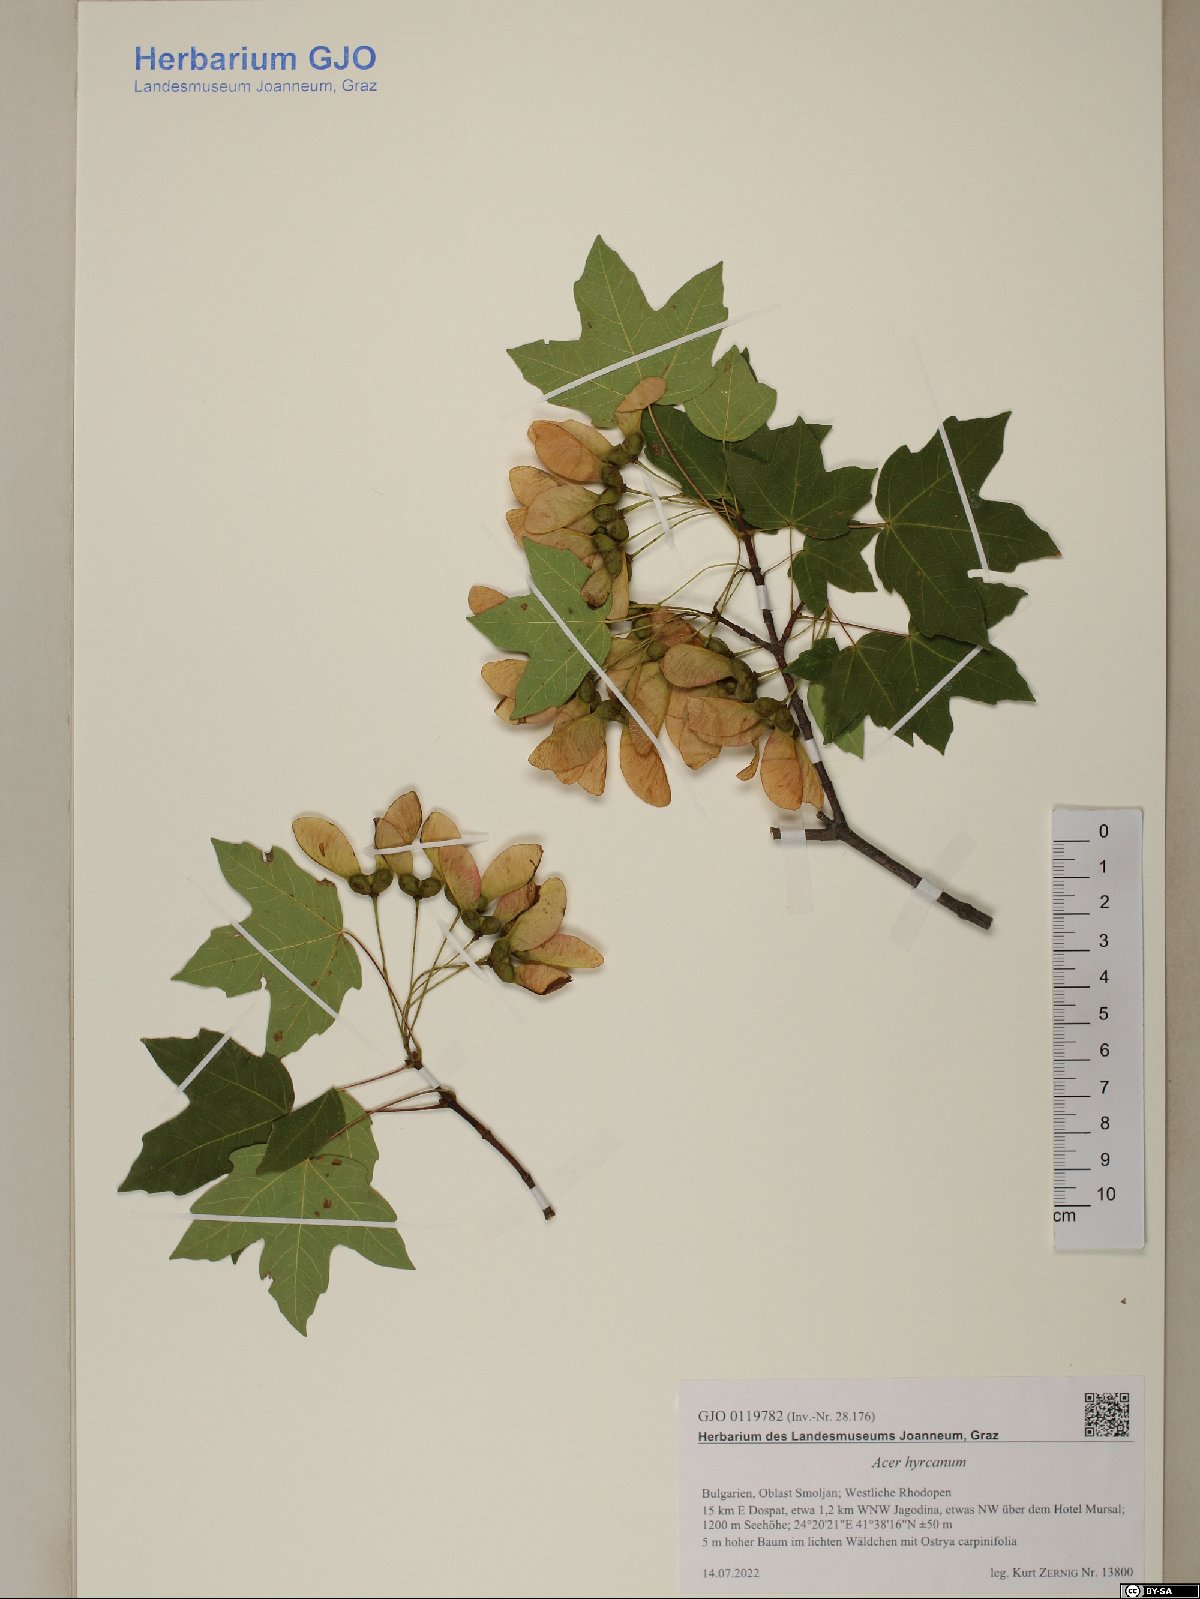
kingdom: Plantae
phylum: Tracheophyta
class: Magnoliopsida
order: Sapindales
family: Sapindaceae
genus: Acer
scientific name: Acer hyrcanum
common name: Balkan maple
